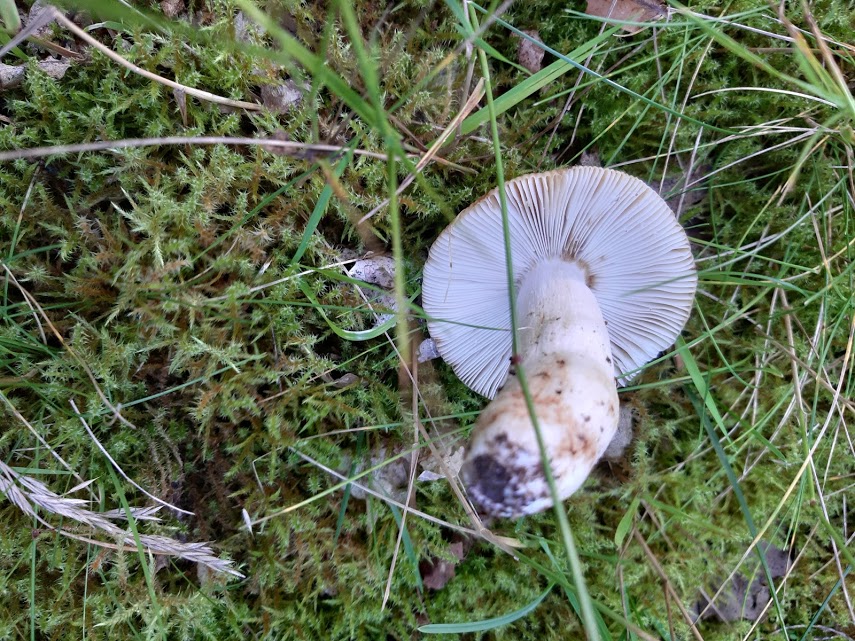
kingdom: Fungi
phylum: Basidiomycota
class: Agaricomycetes
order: Russulales
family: Russulaceae
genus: Russula
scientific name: Russula grata
